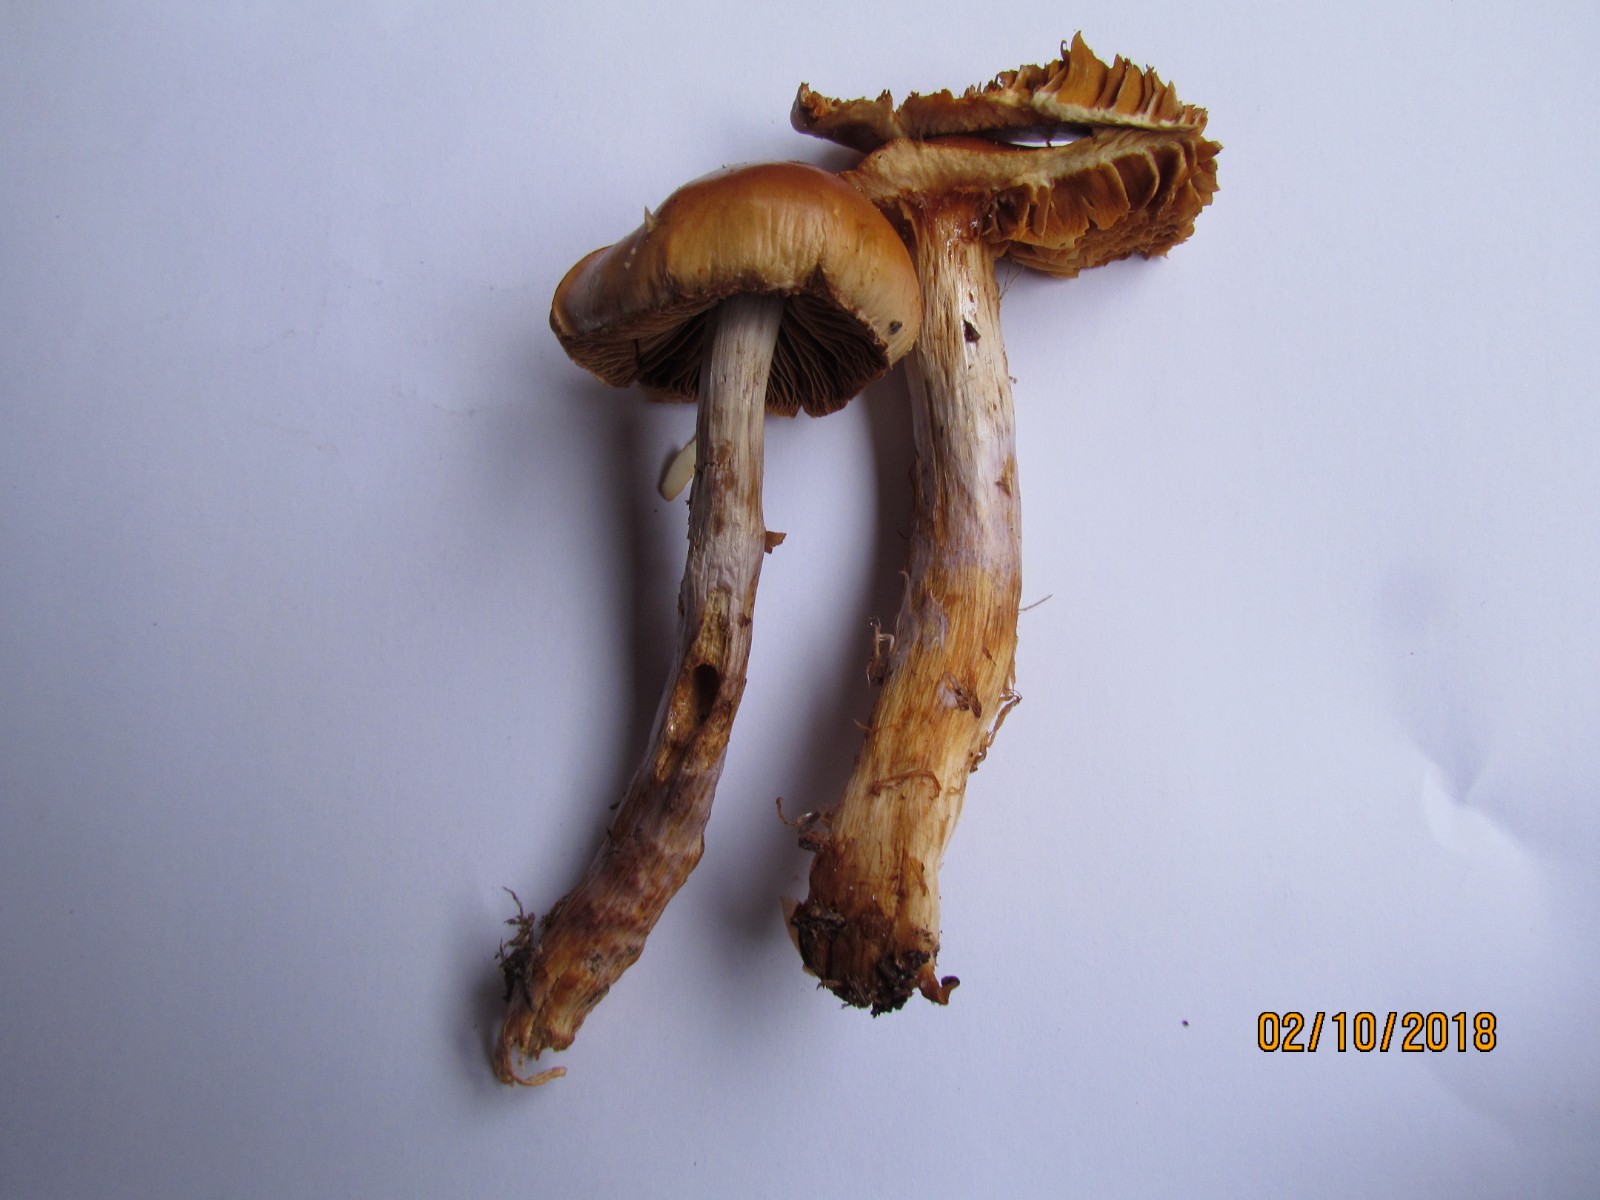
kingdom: Fungi
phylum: Basidiomycota
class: Agaricomycetes
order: Agaricales
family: Cortinariaceae
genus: Cortinarius
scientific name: Cortinarius collinitus
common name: spættet slørhat
